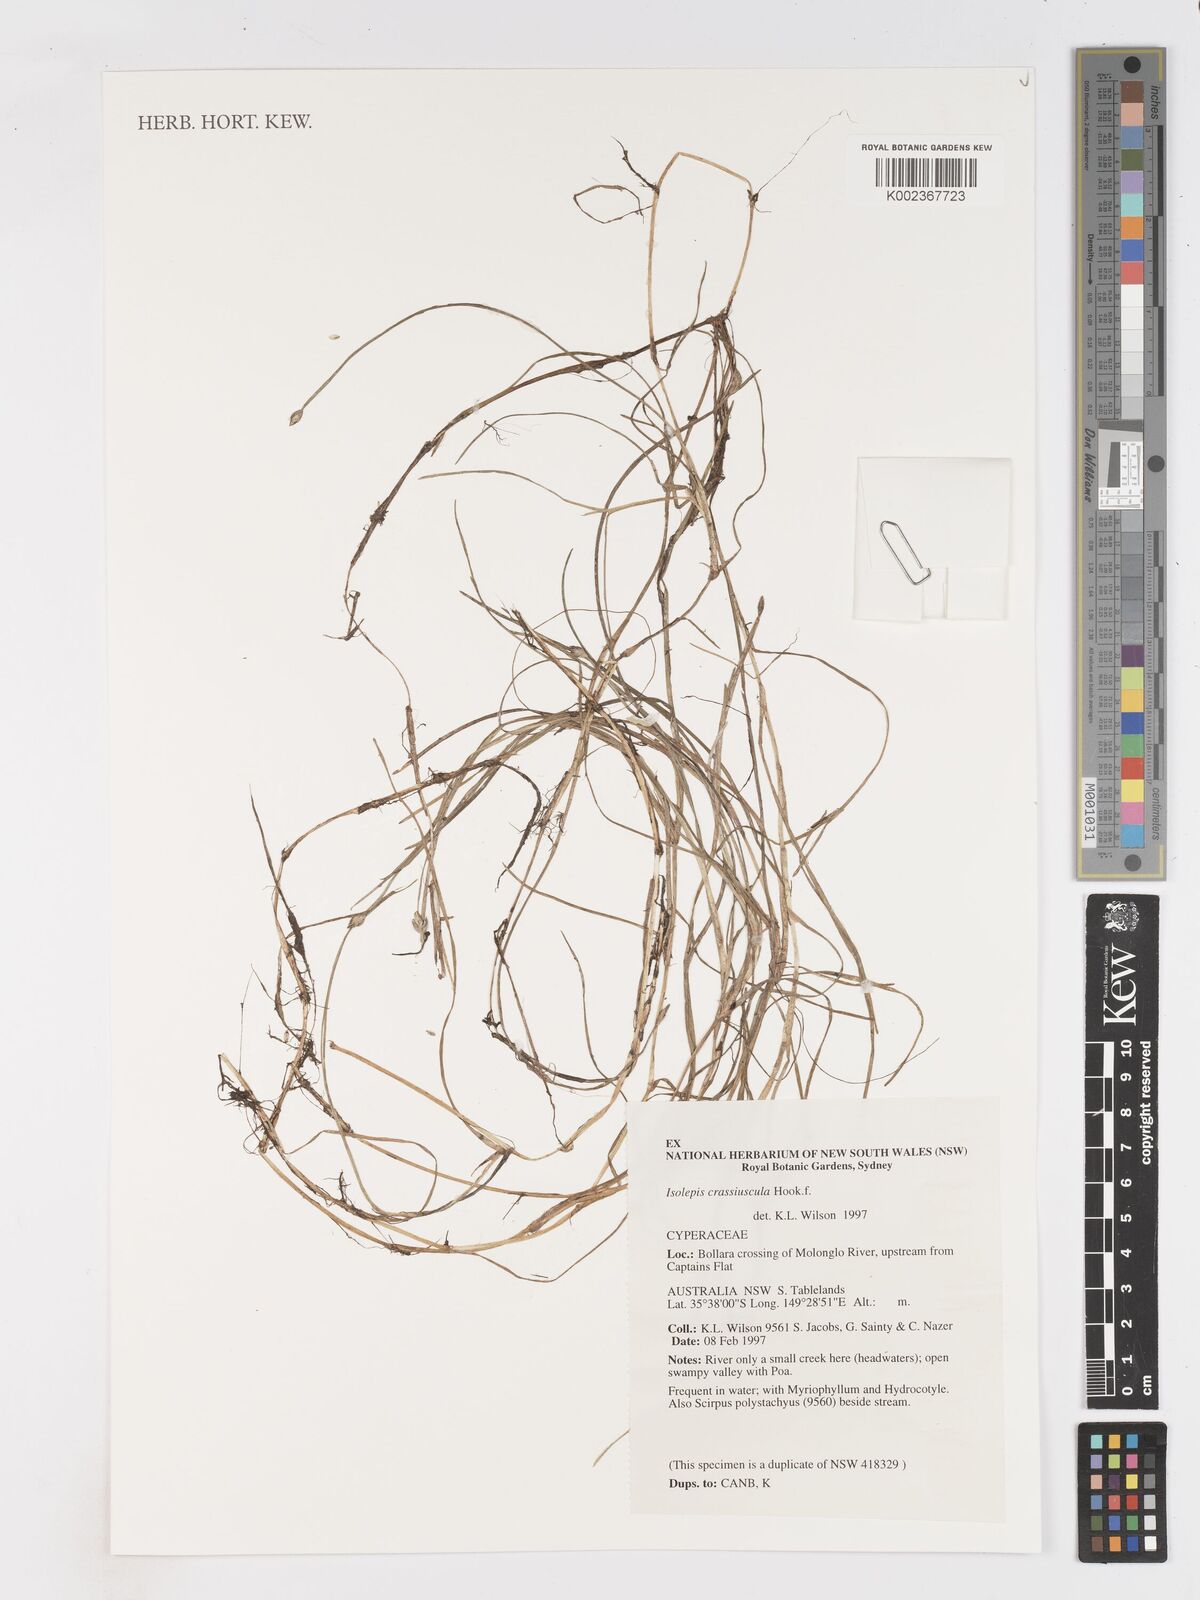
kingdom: Plantae
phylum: Tracheophyta
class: Liliopsida
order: Poales
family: Cyperaceae
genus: Isolepis
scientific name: Isolepis crassiuscula
